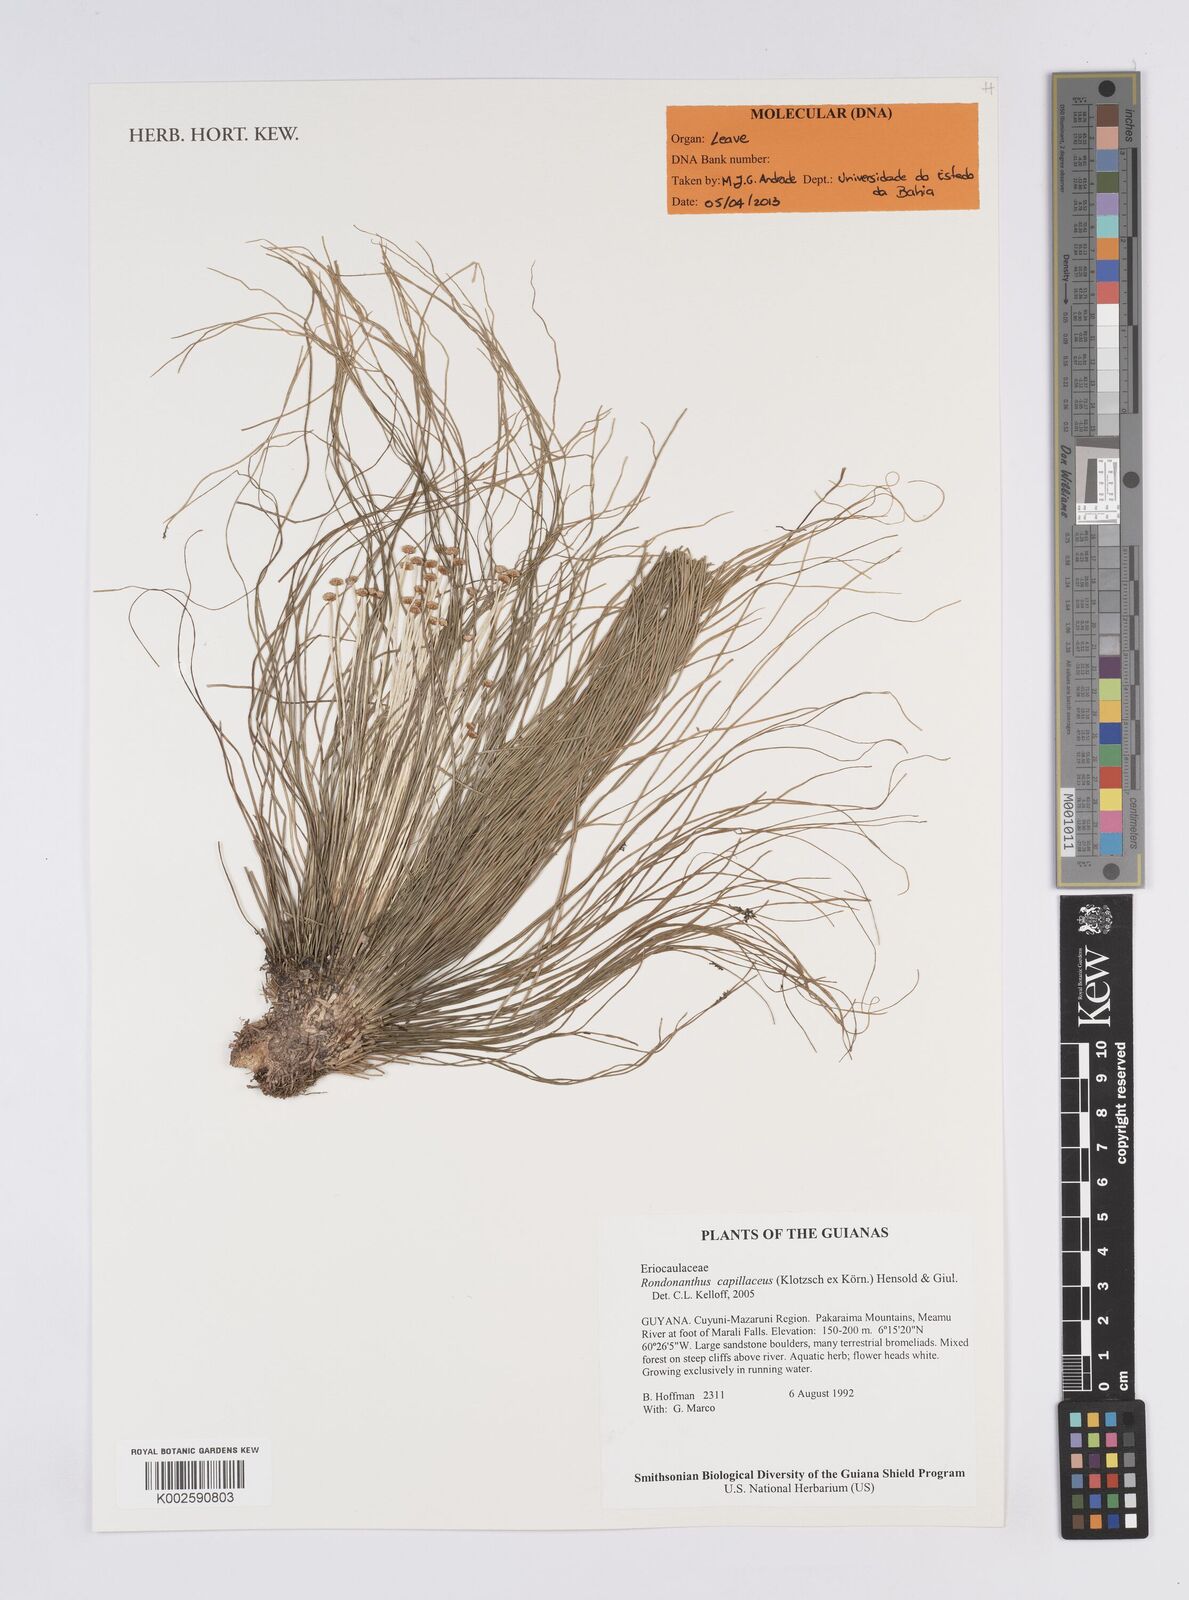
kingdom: Plantae
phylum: Tracheophyta
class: Liliopsida
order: Poales
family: Eriocaulaceae
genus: Rondonanthus
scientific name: Rondonanthus capillaceus
